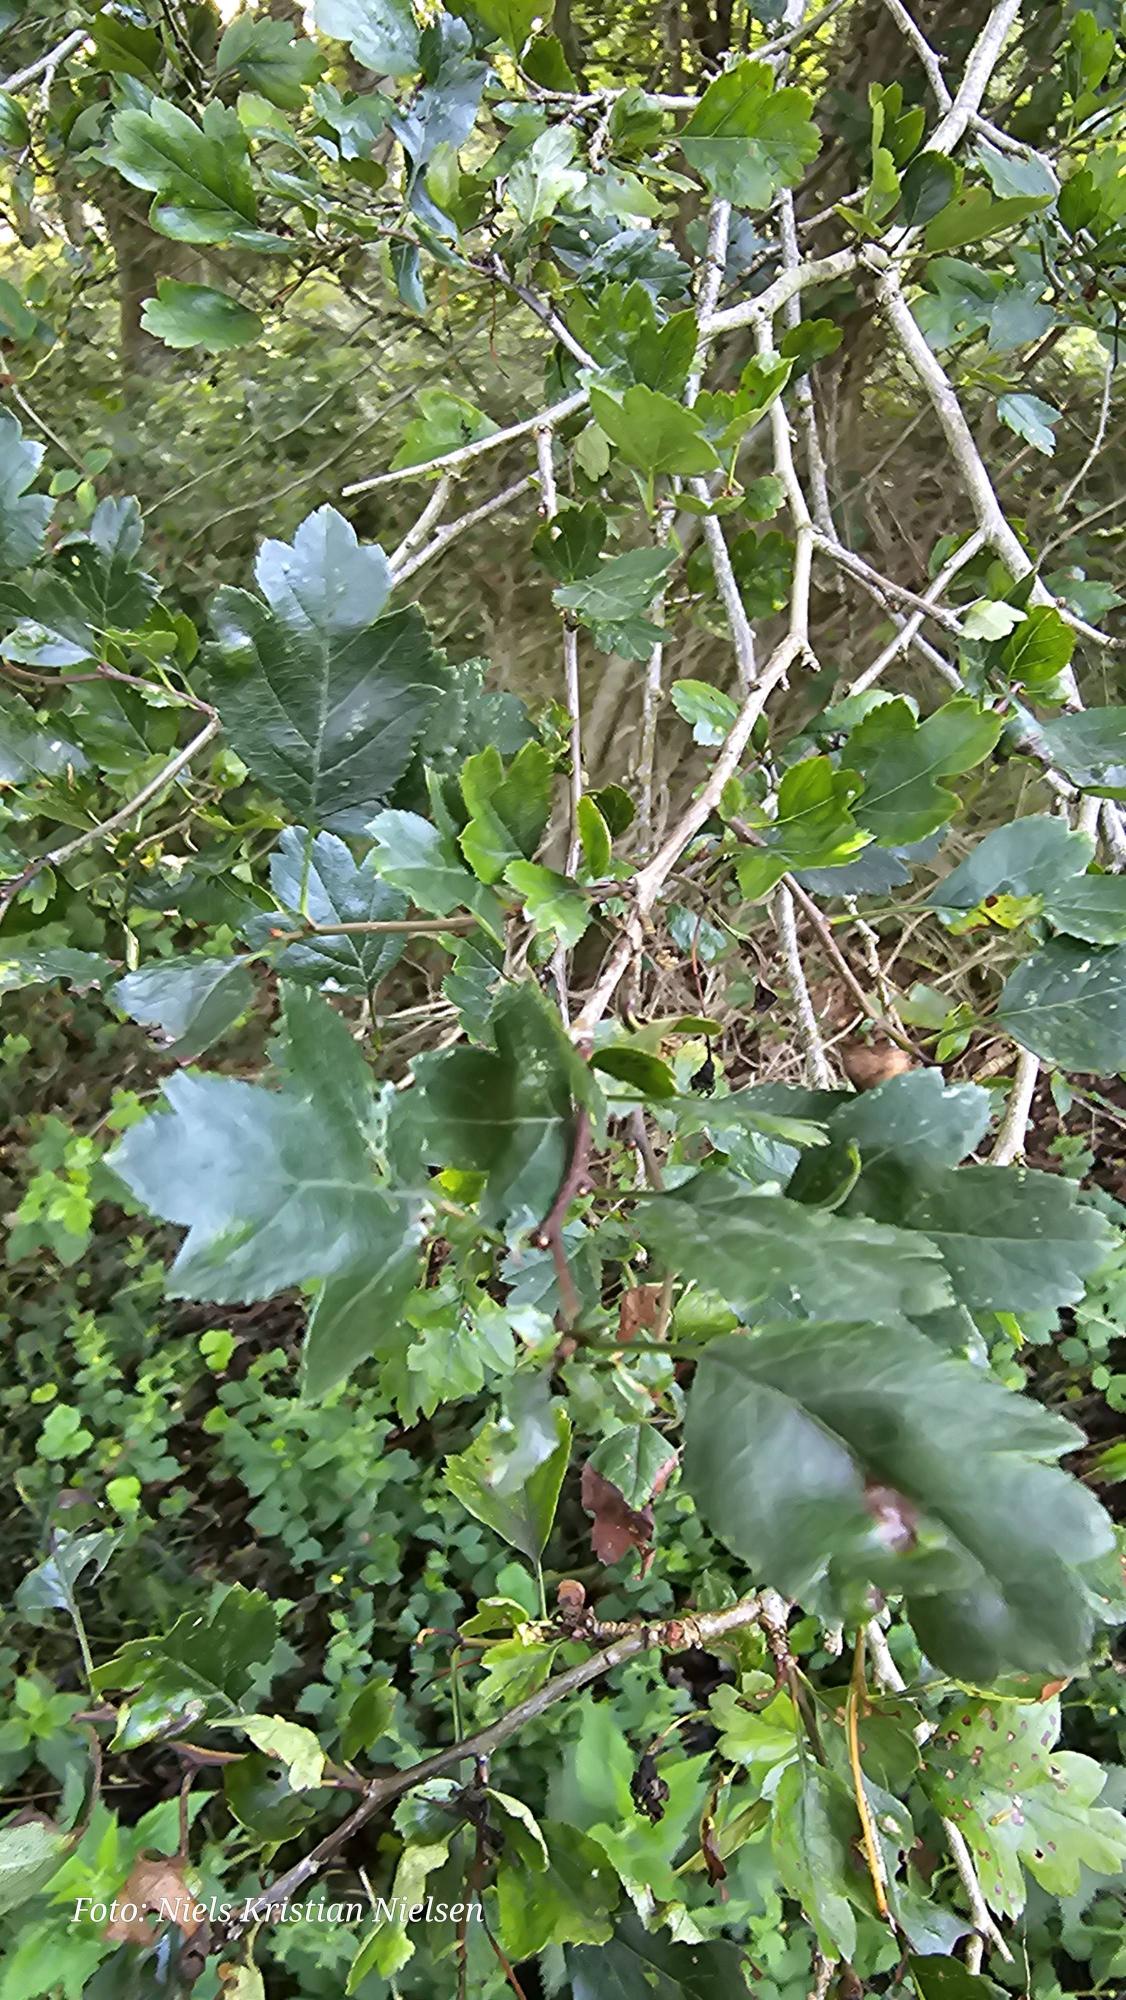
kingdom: Plantae
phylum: Tracheophyta
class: Magnoliopsida
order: Rosales
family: Rosaceae
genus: Crataegus
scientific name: Crataegus macrocarpa
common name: Almindelig hvidtjørn × koral-hvidtjørn
